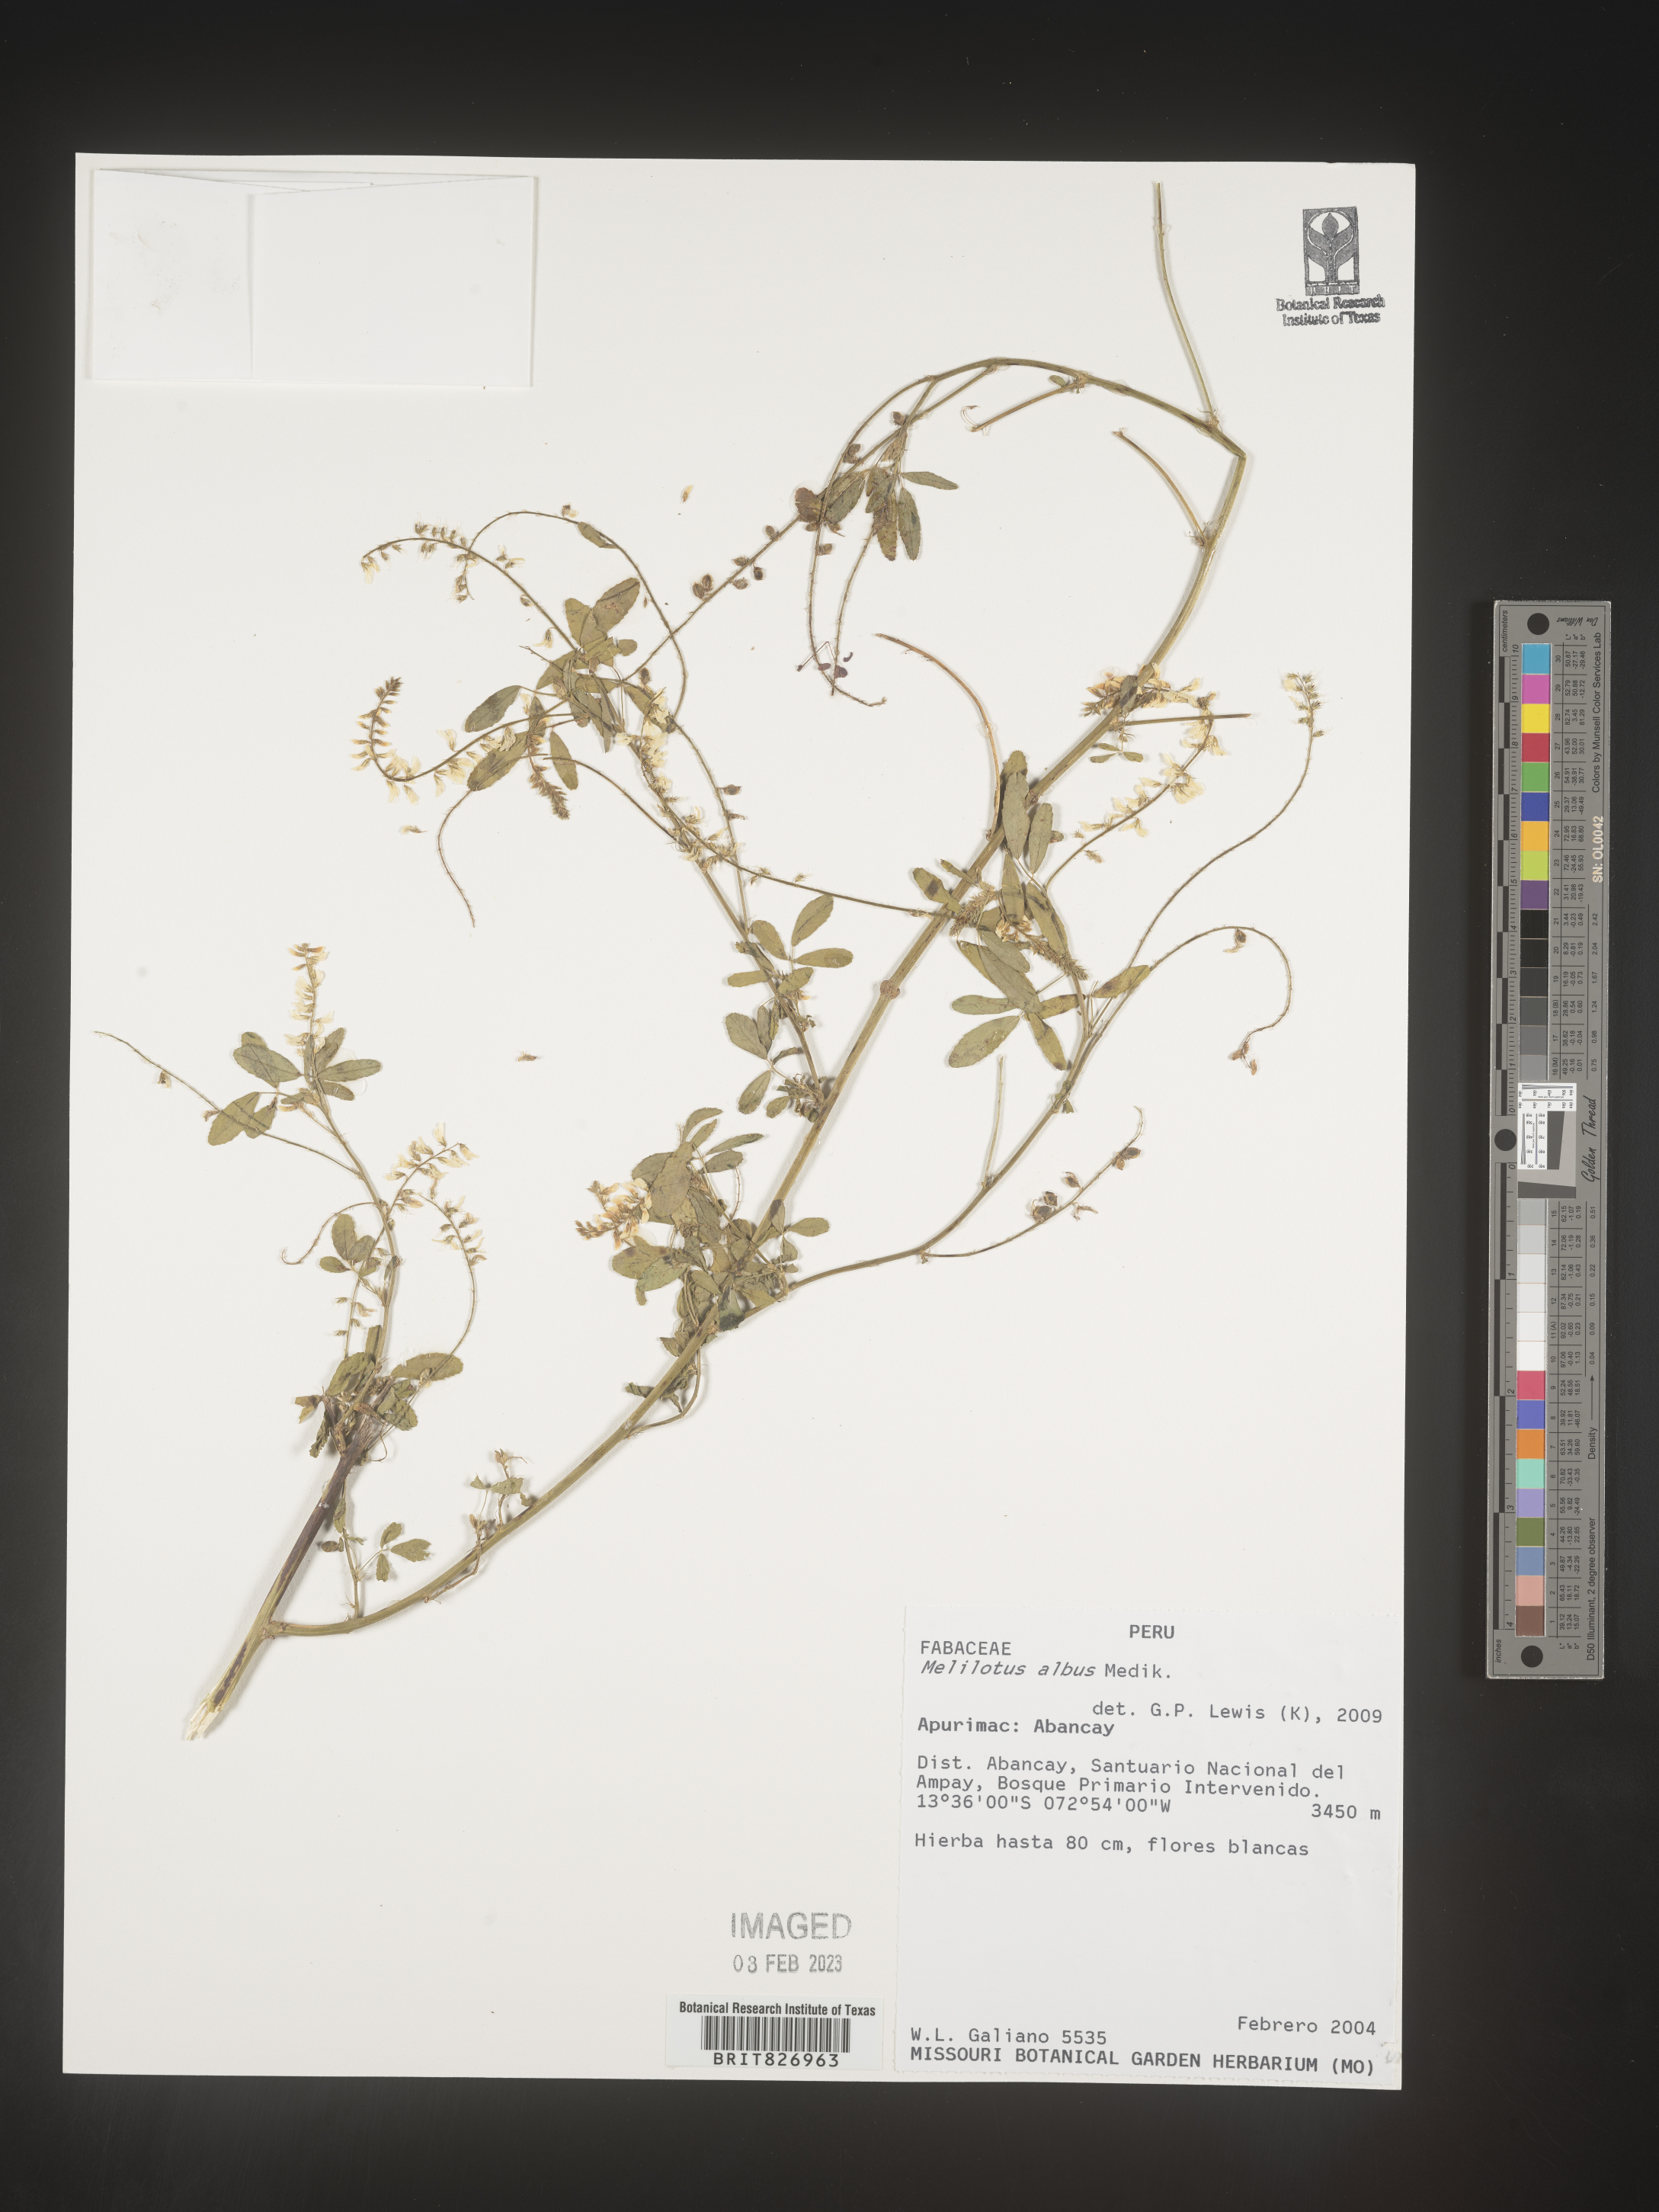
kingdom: Plantae
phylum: Tracheophyta
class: Magnoliopsida
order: Fabales
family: Fabaceae
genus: Melilotus
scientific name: Melilotus
